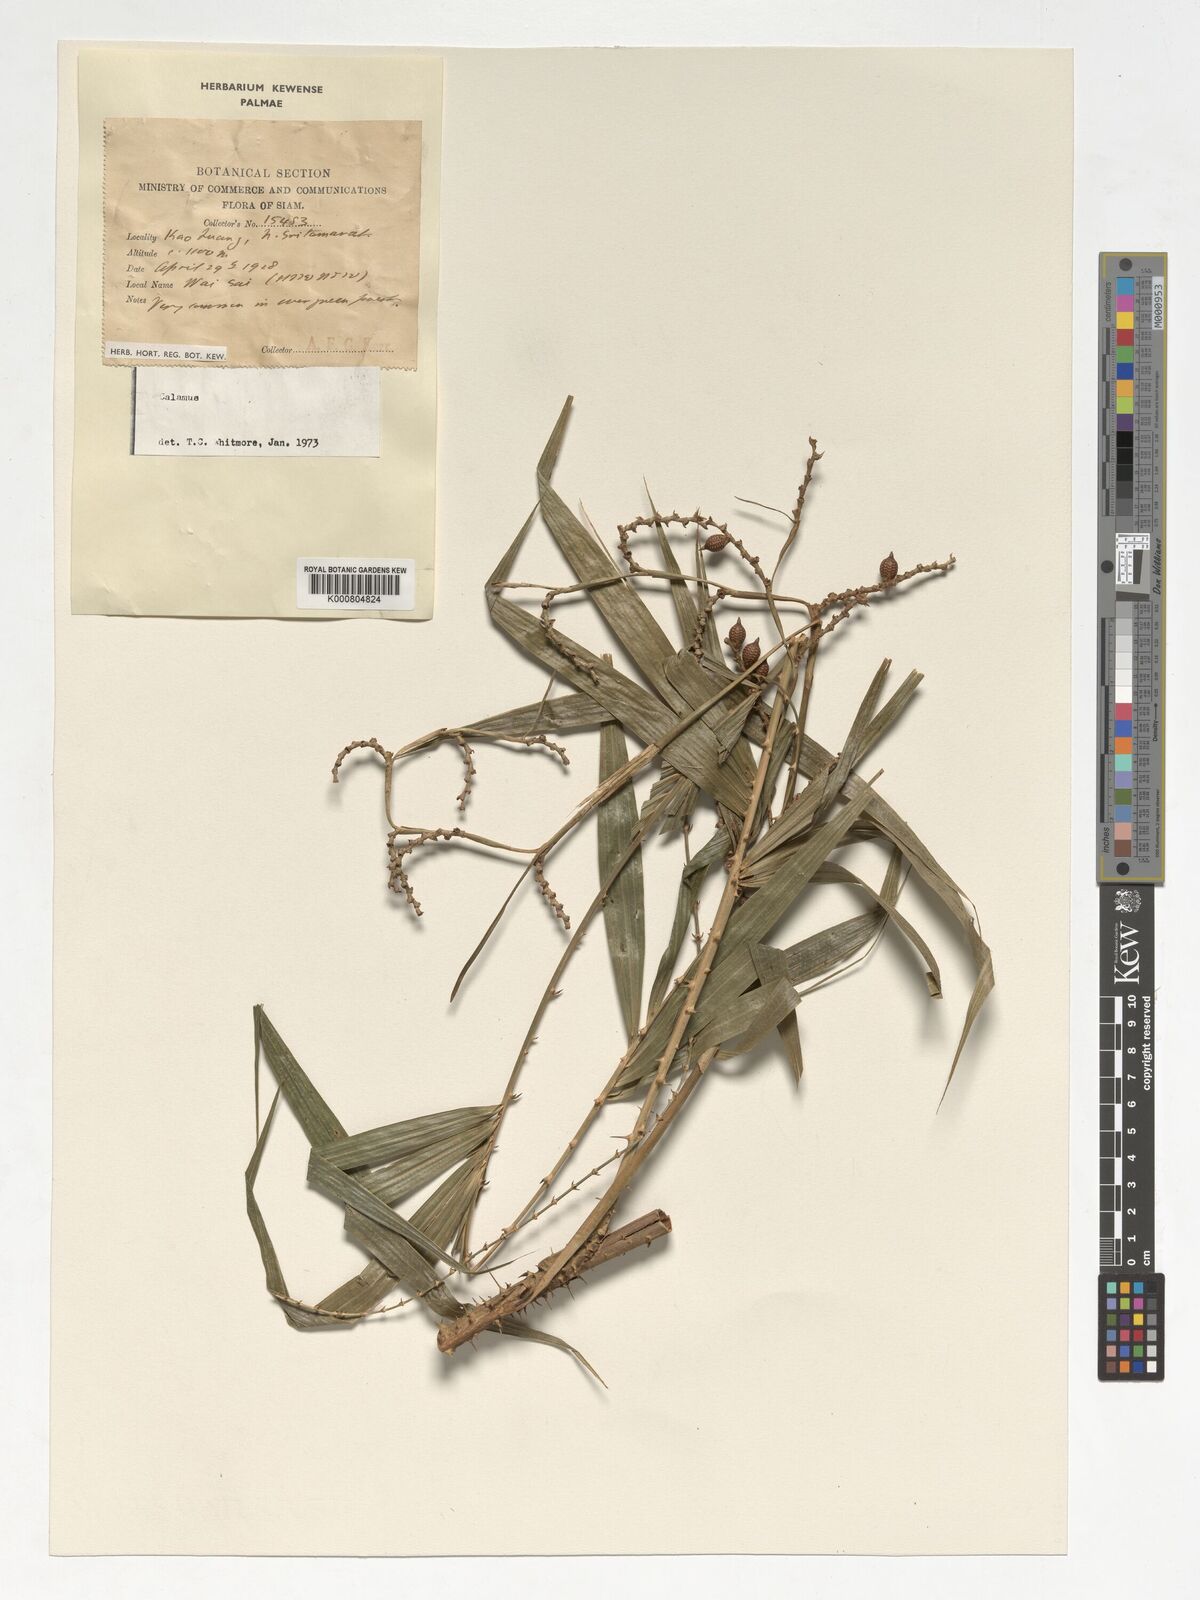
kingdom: Plantae
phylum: Tracheophyta
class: Liliopsida
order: Arecales
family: Arecaceae
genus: Calamus
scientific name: Calamus
